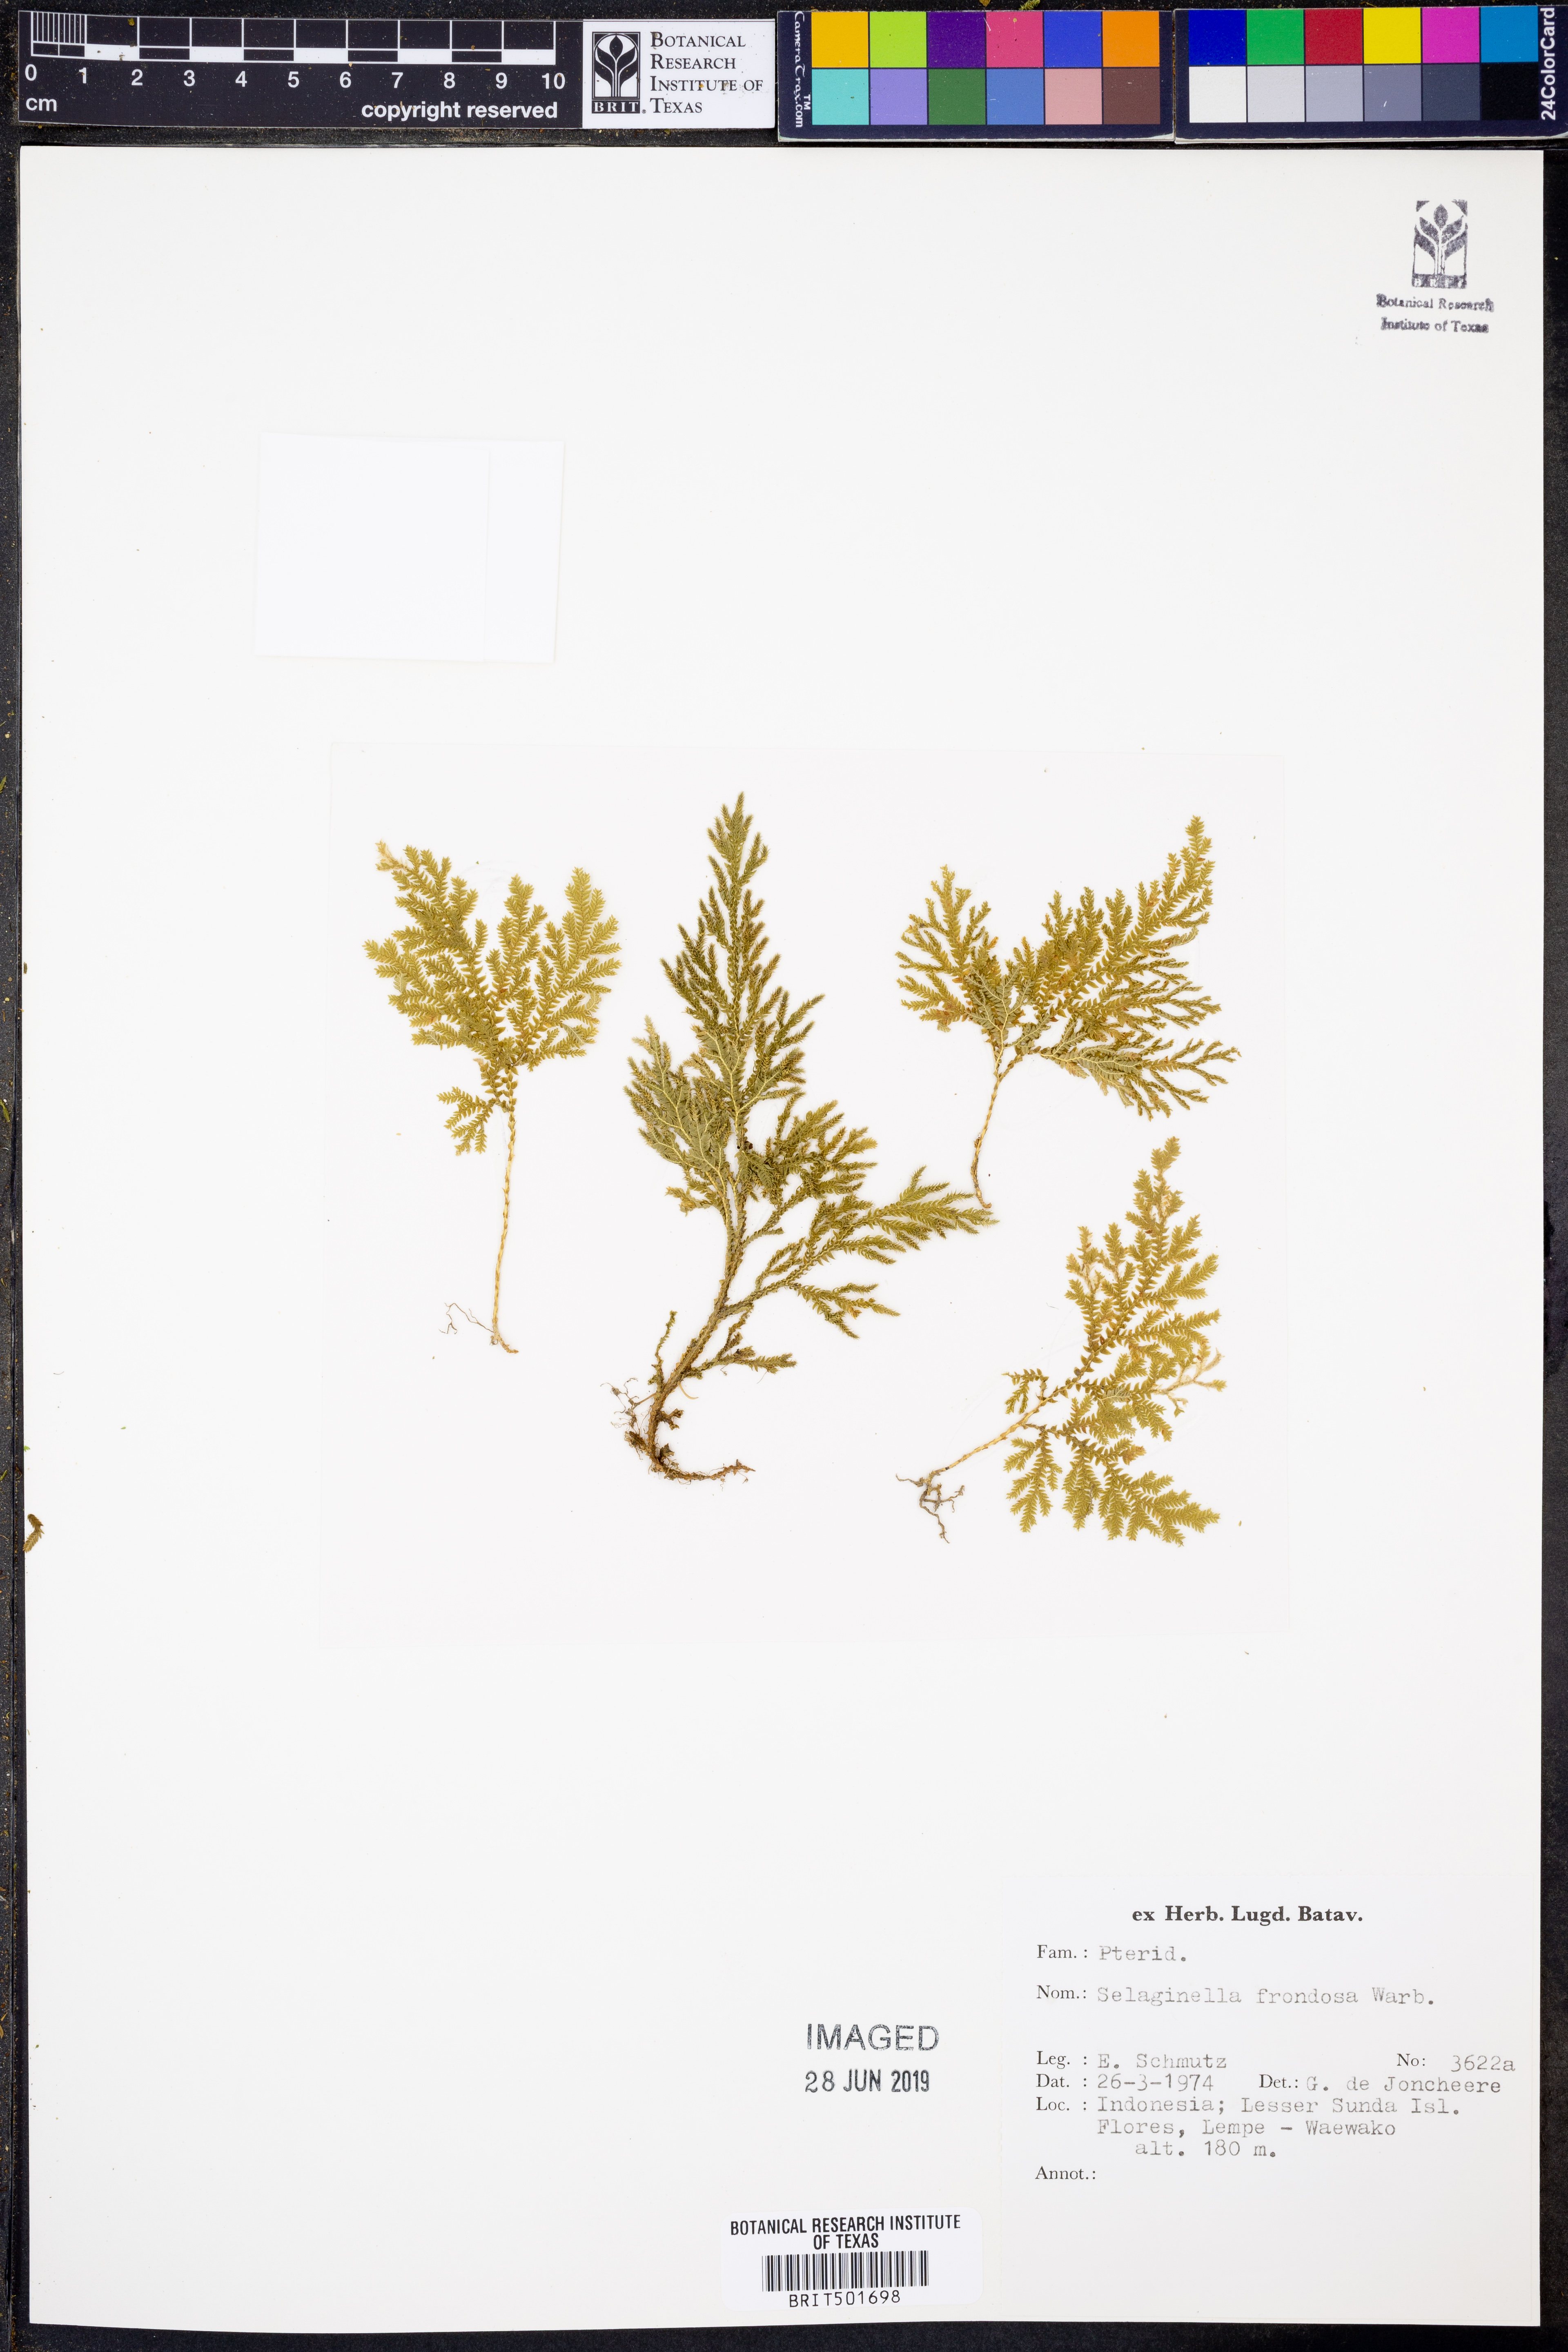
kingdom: Plantae
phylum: Tracheophyta
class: Lycopodiopsida
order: Selaginellales
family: Selaginellaceae
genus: Selaginella
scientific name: Selaginella frondosa
